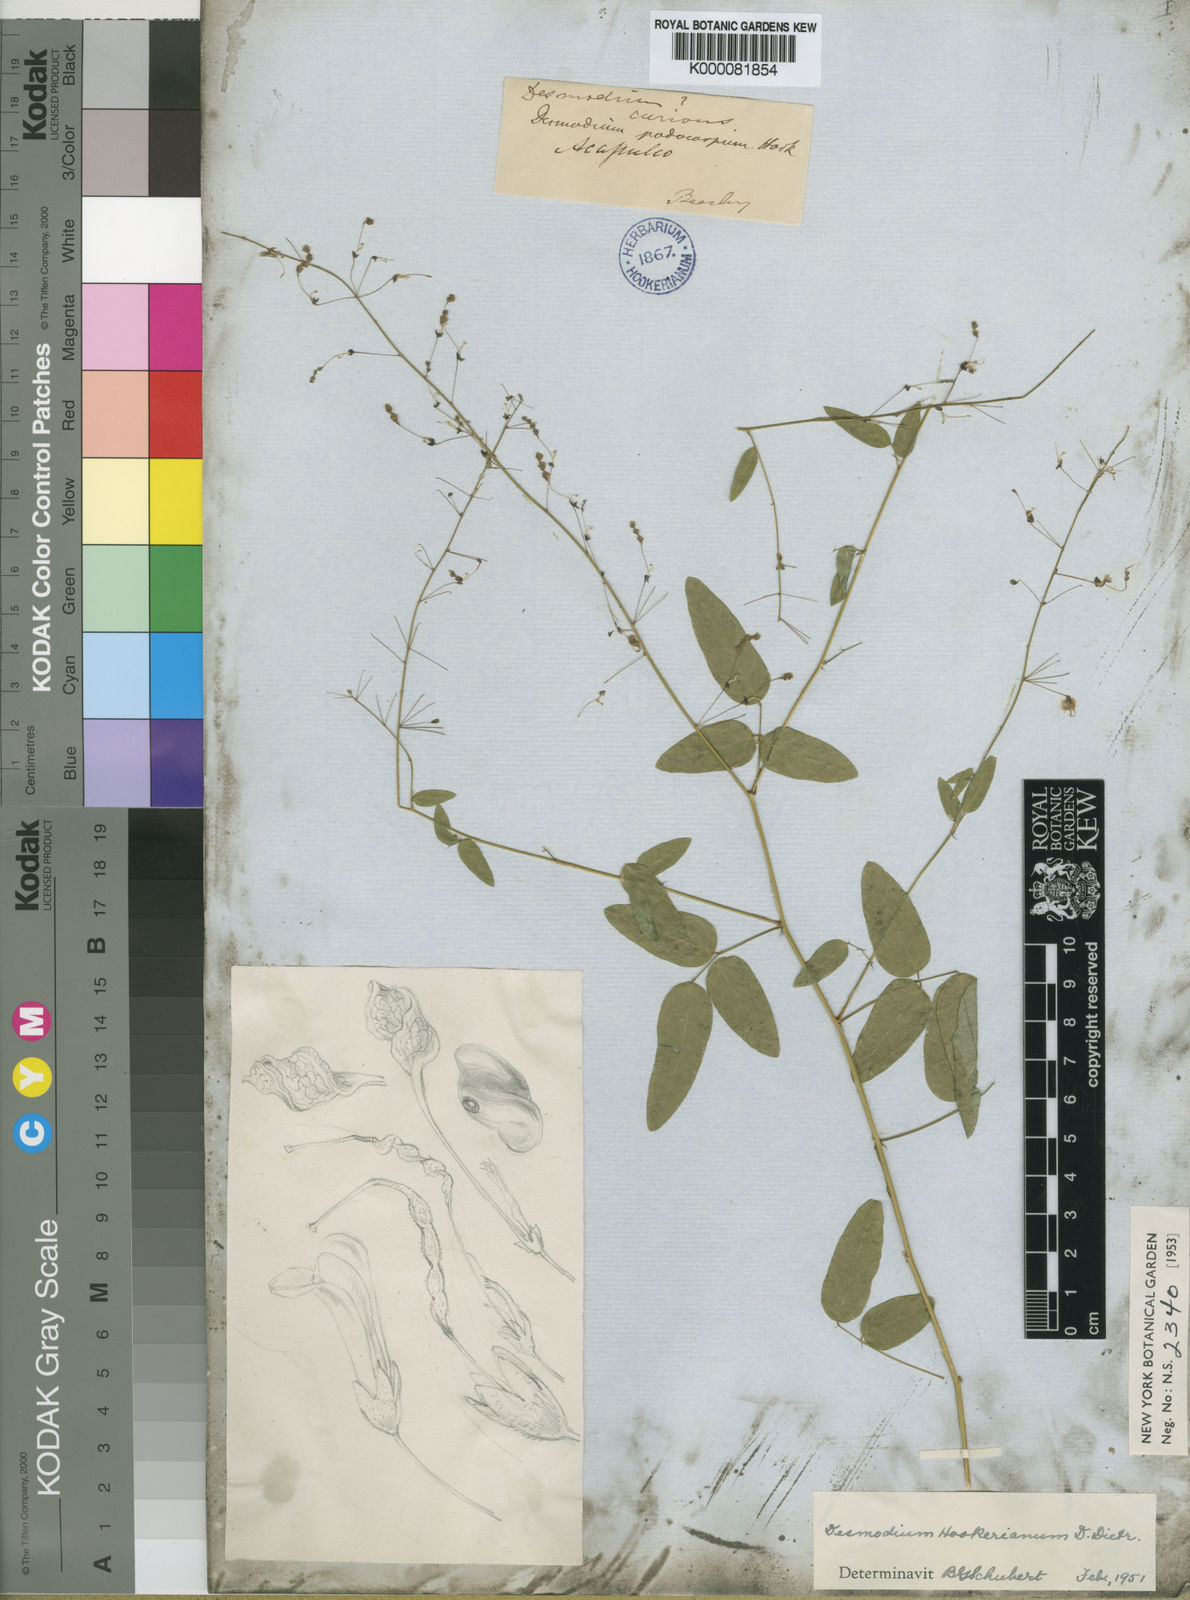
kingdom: Plantae
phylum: Tracheophyta
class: Magnoliopsida
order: Fabales
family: Fabaceae
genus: Desmodium
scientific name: Desmodium hookerianum
